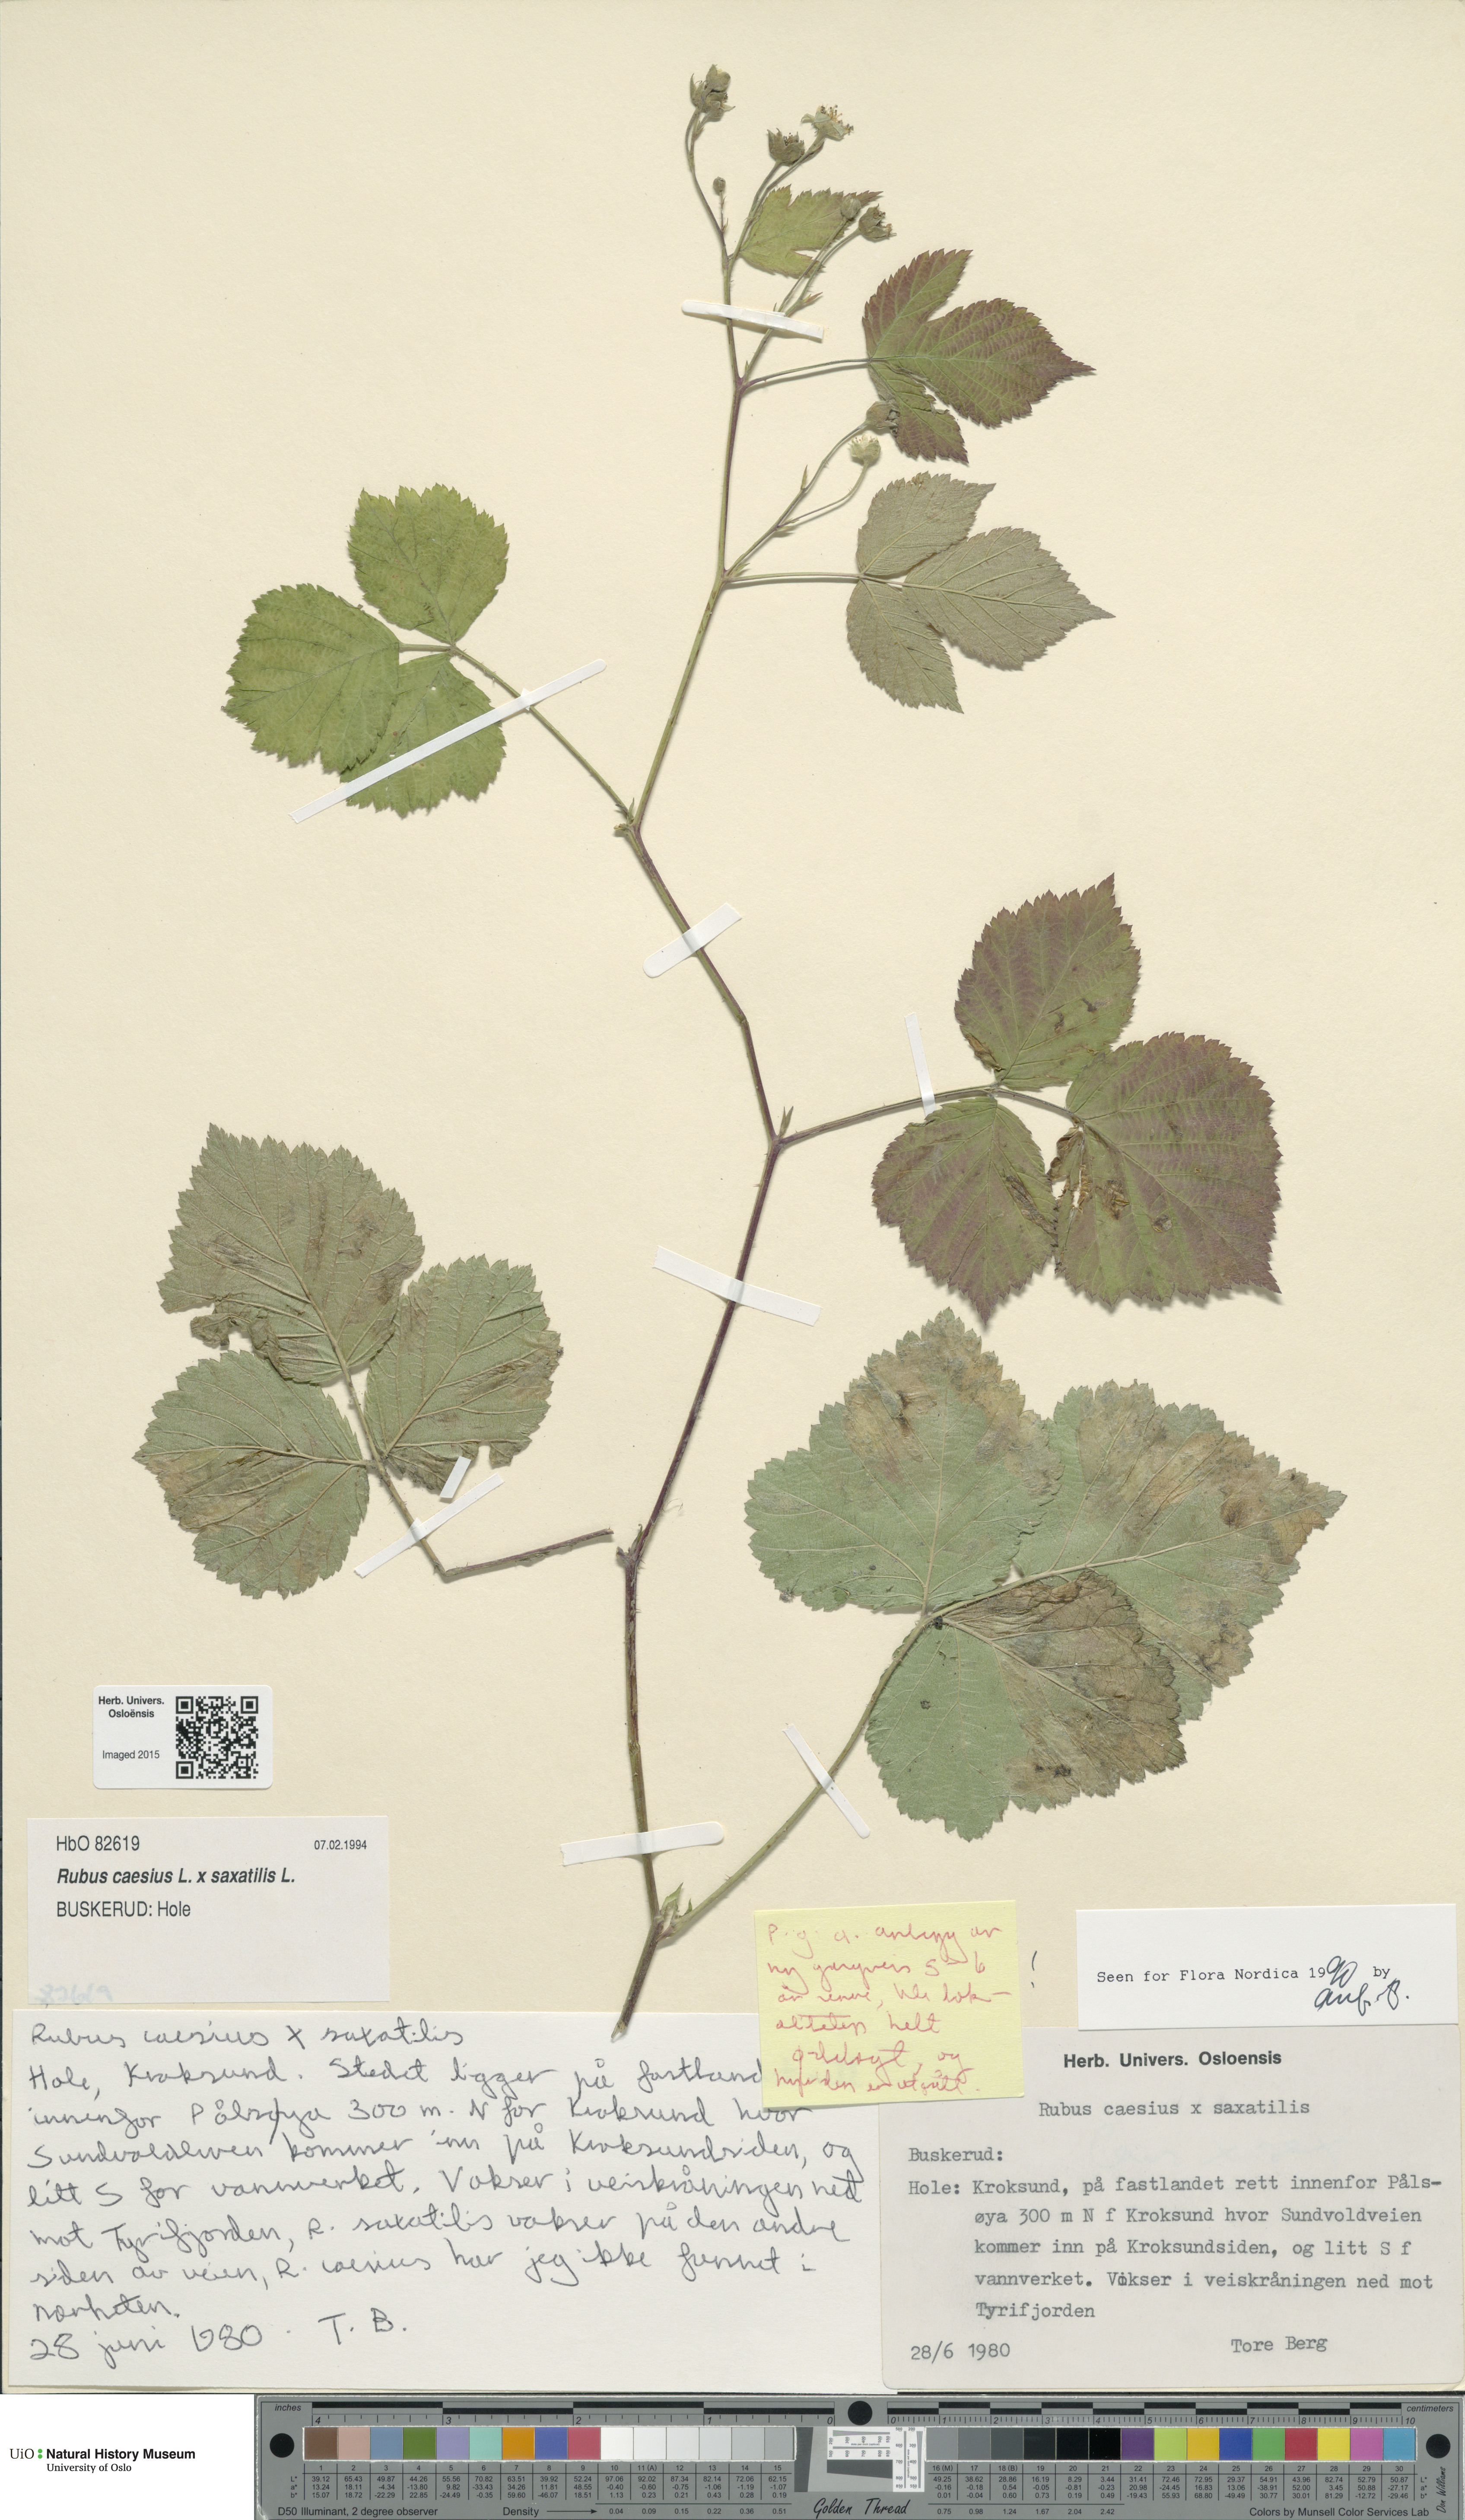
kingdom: Plantae
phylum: Tracheophyta
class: Magnoliopsida
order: Rosales
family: Rosaceae
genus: Rubus
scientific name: Rubus
